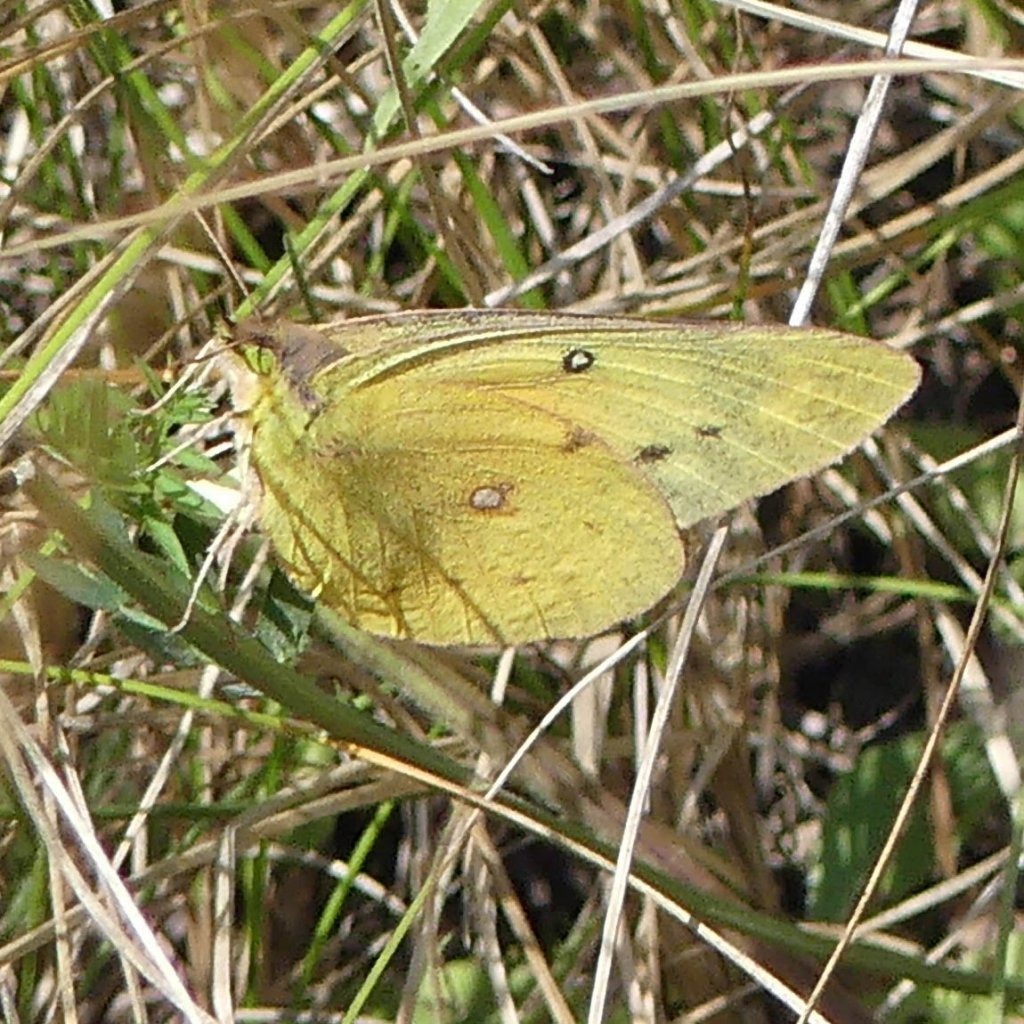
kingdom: Animalia
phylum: Arthropoda
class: Insecta
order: Lepidoptera
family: Pieridae
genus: Colias
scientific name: Colias eurytheme
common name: Orange Sulphur
